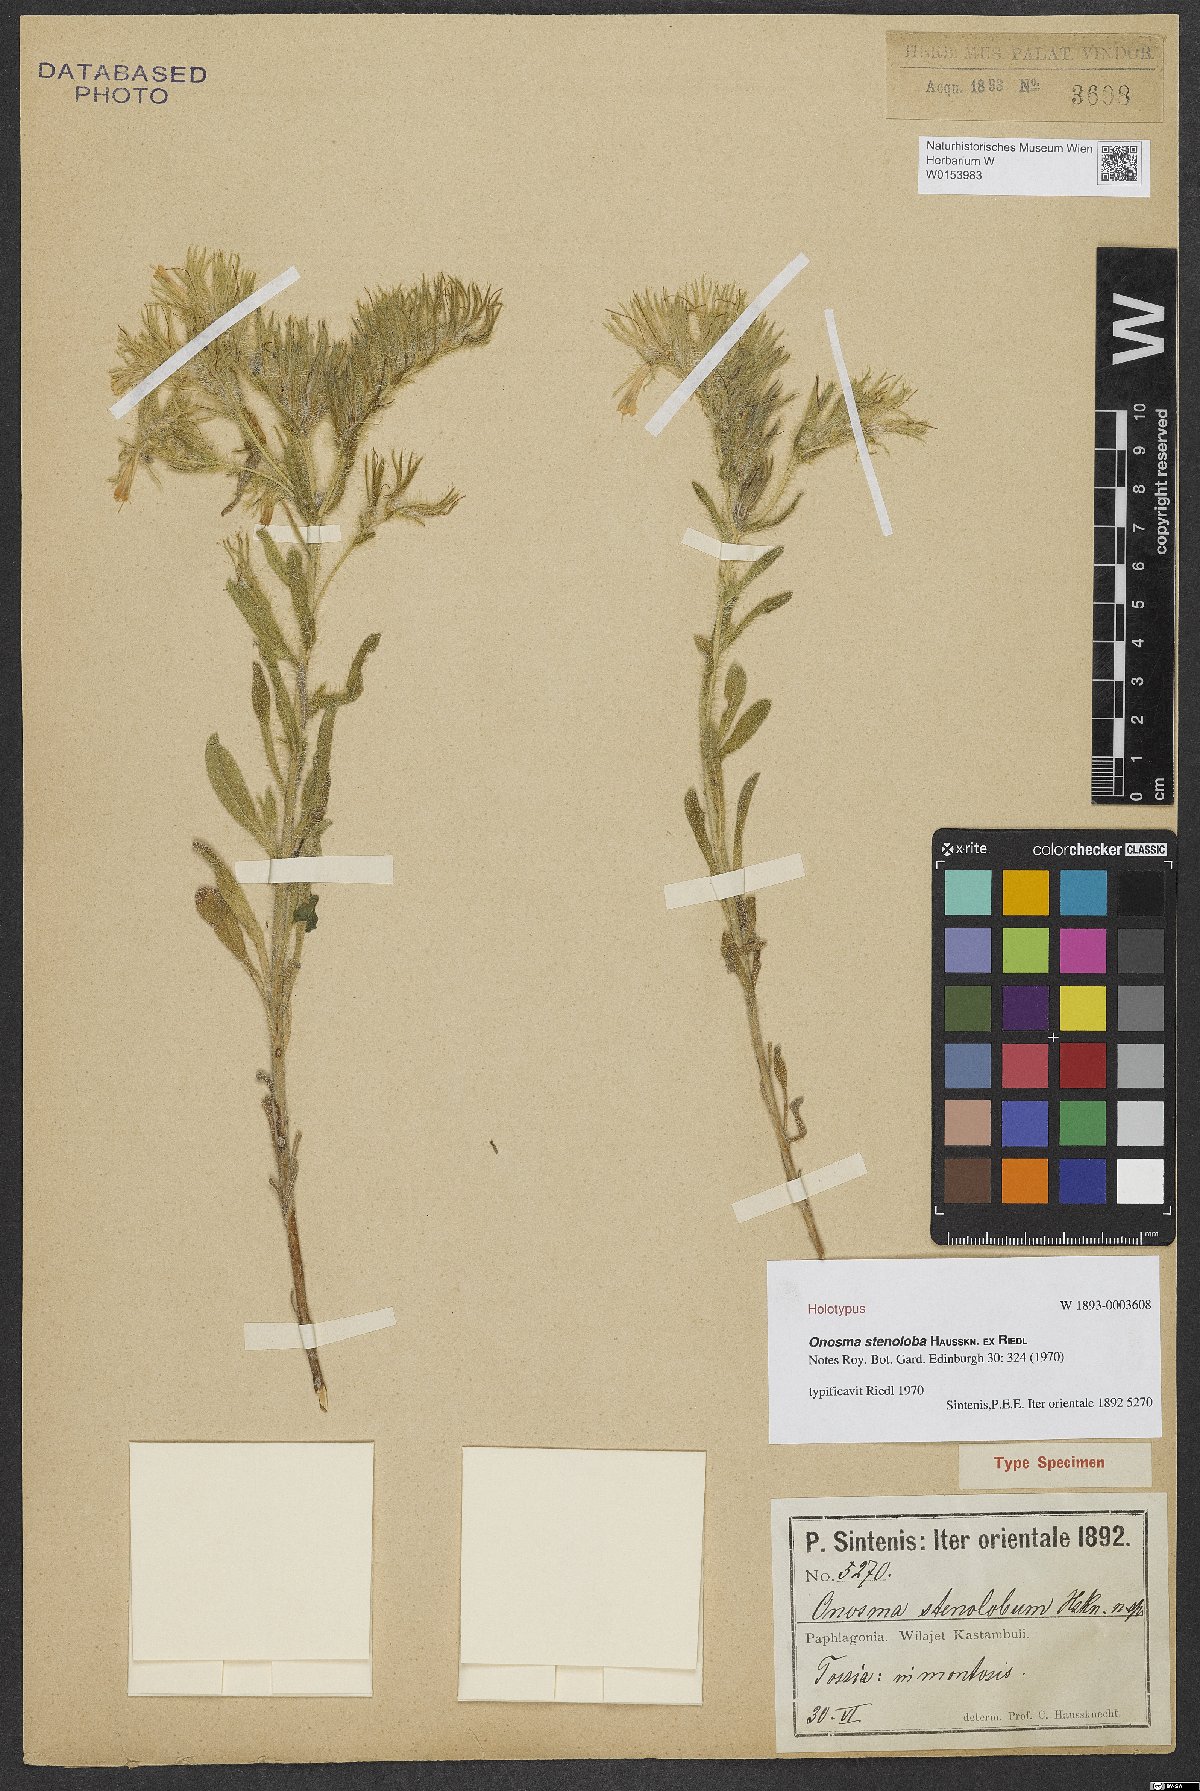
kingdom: Plantae
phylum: Tracheophyta
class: Magnoliopsida
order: Boraginales
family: Boraginaceae
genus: Onosma
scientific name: Onosma stenoloba
